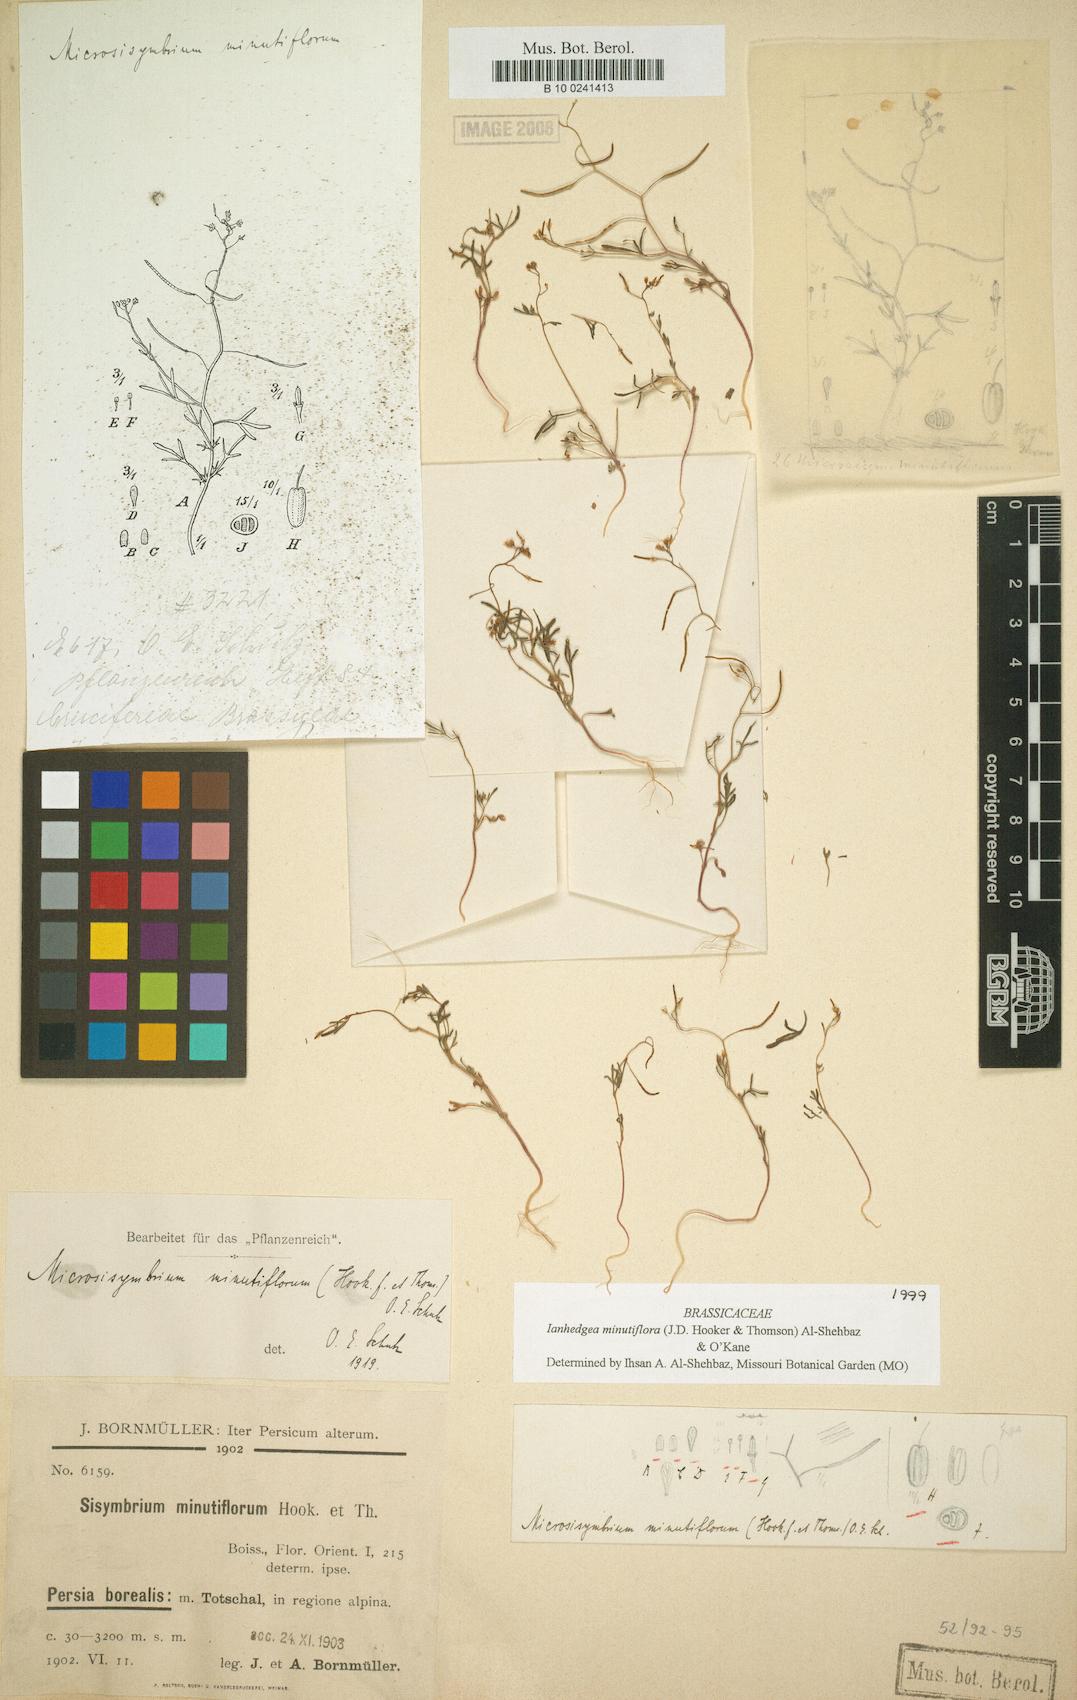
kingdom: Plantae
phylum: Tracheophyta
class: Magnoliopsida
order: Brassicales
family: Brassicaceae
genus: Ianhedgea
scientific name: Ianhedgea minutiflora
